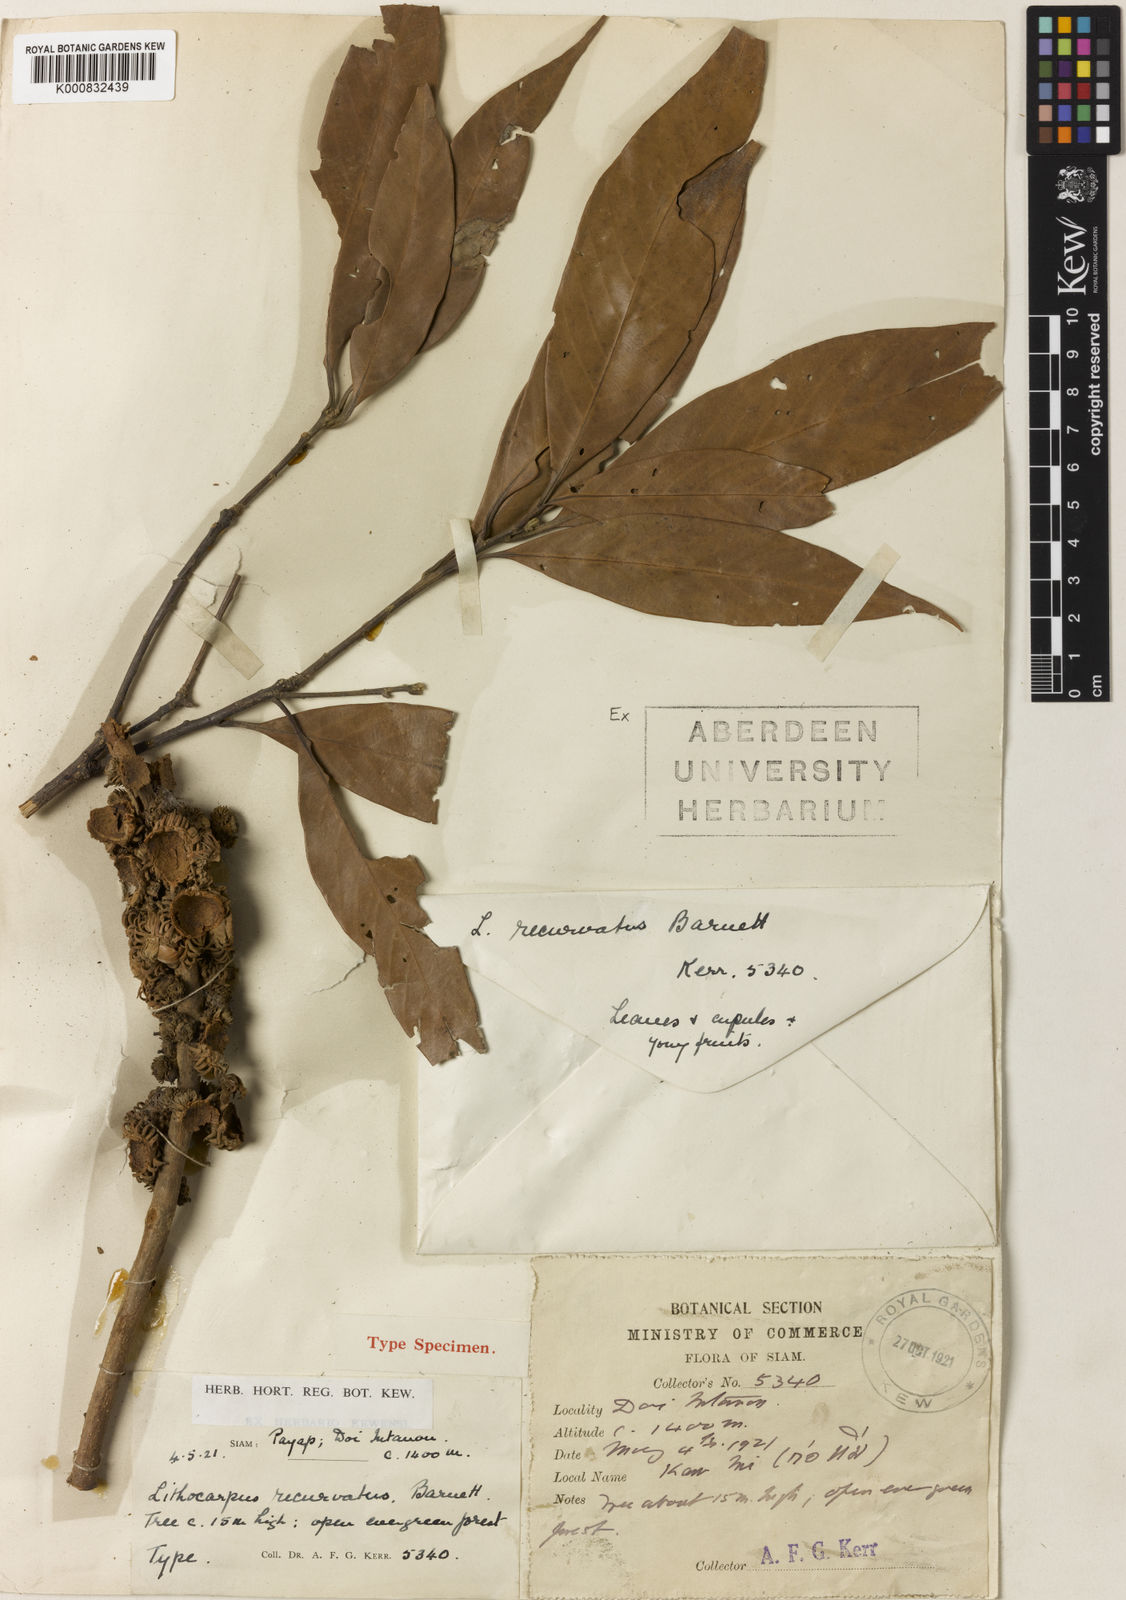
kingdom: Plantae
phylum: Tracheophyta
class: Magnoliopsida
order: Fagales
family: Fagaceae
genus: Lithocarpus
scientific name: Lithocarpus recurvatus
